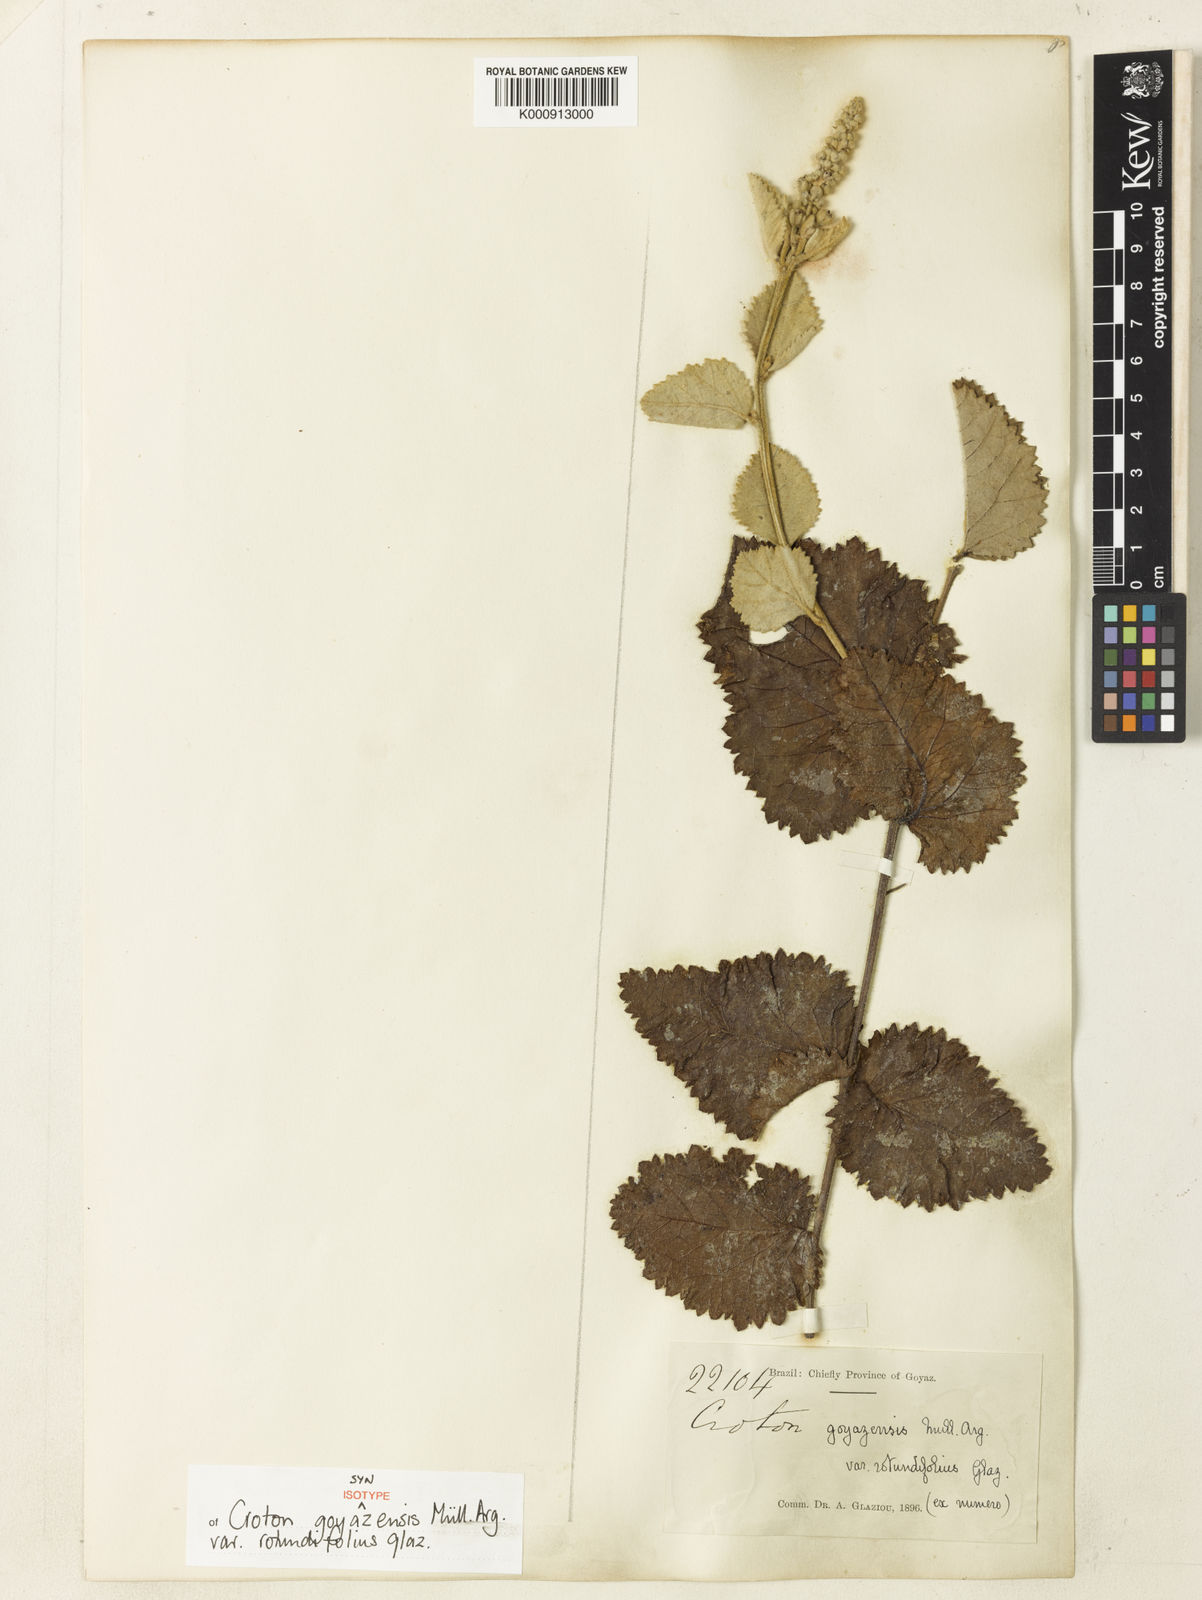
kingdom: Plantae
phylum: Tracheophyta
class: Magnoliopsida
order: Malpighiales
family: Euphorbiaceae
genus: Croton
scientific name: Croton
